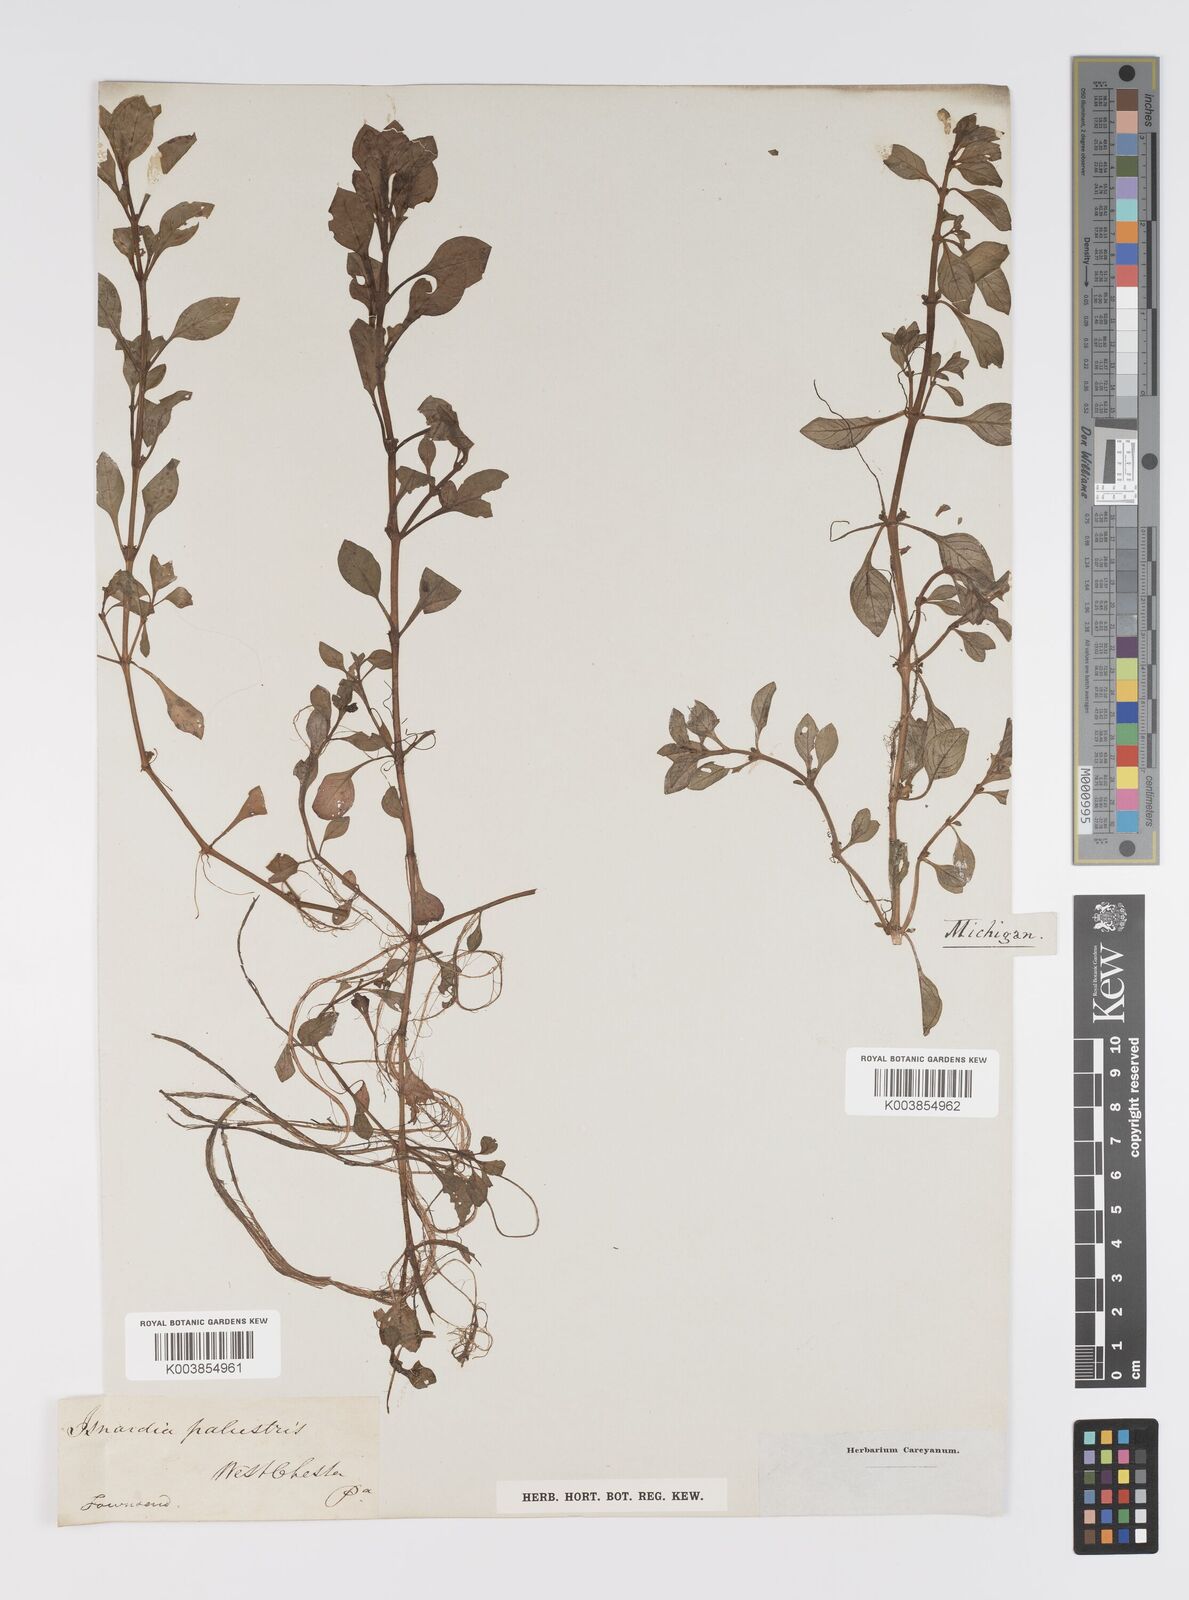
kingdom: Plantae
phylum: Tracheophyta
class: Magnoliopsida
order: Myrtales
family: Onagraceae
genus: Ludwigia
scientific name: Ludwigia palustris
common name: Hampshire-purslane
